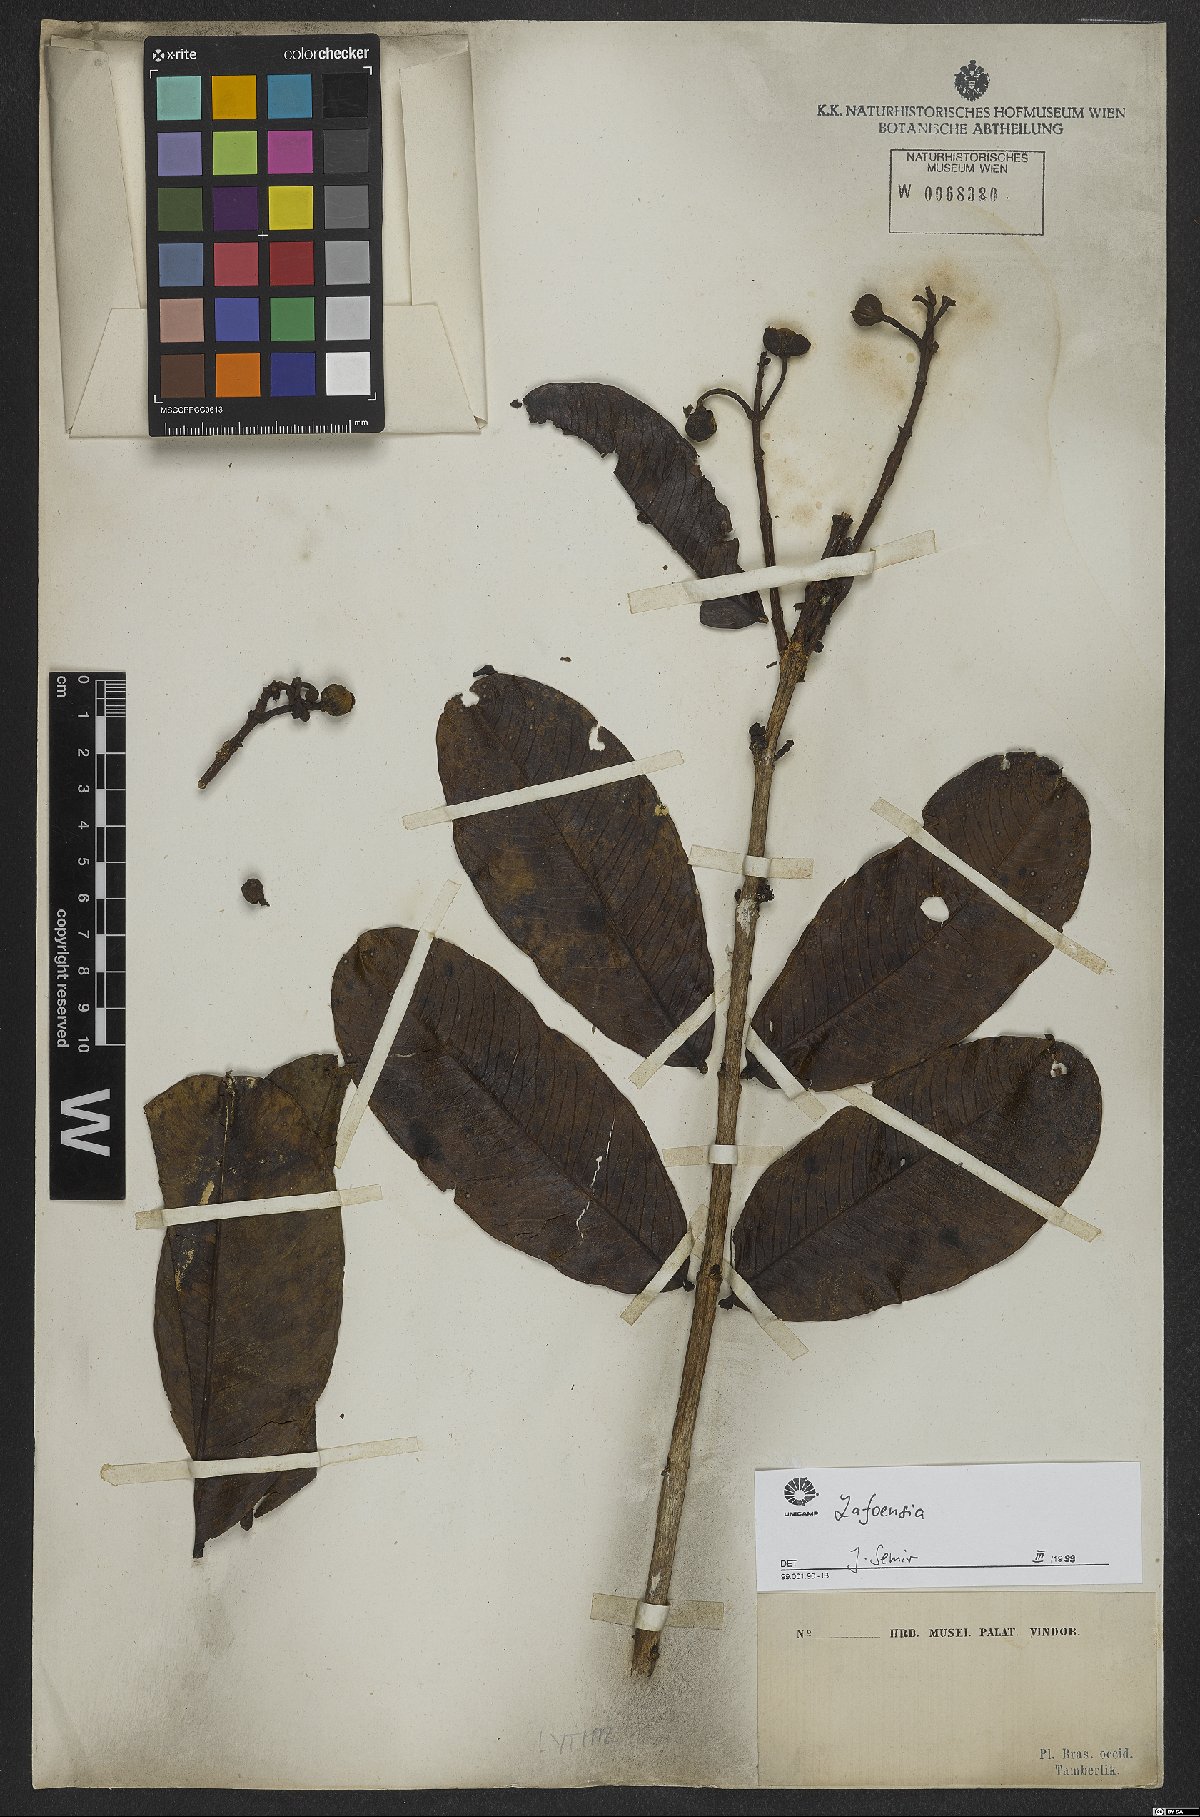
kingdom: Plantae
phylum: Tracheophyta
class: Magnoliopsida
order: Myrtales
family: Lythraceae
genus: Lafoensia
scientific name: Lafoensia pacari
